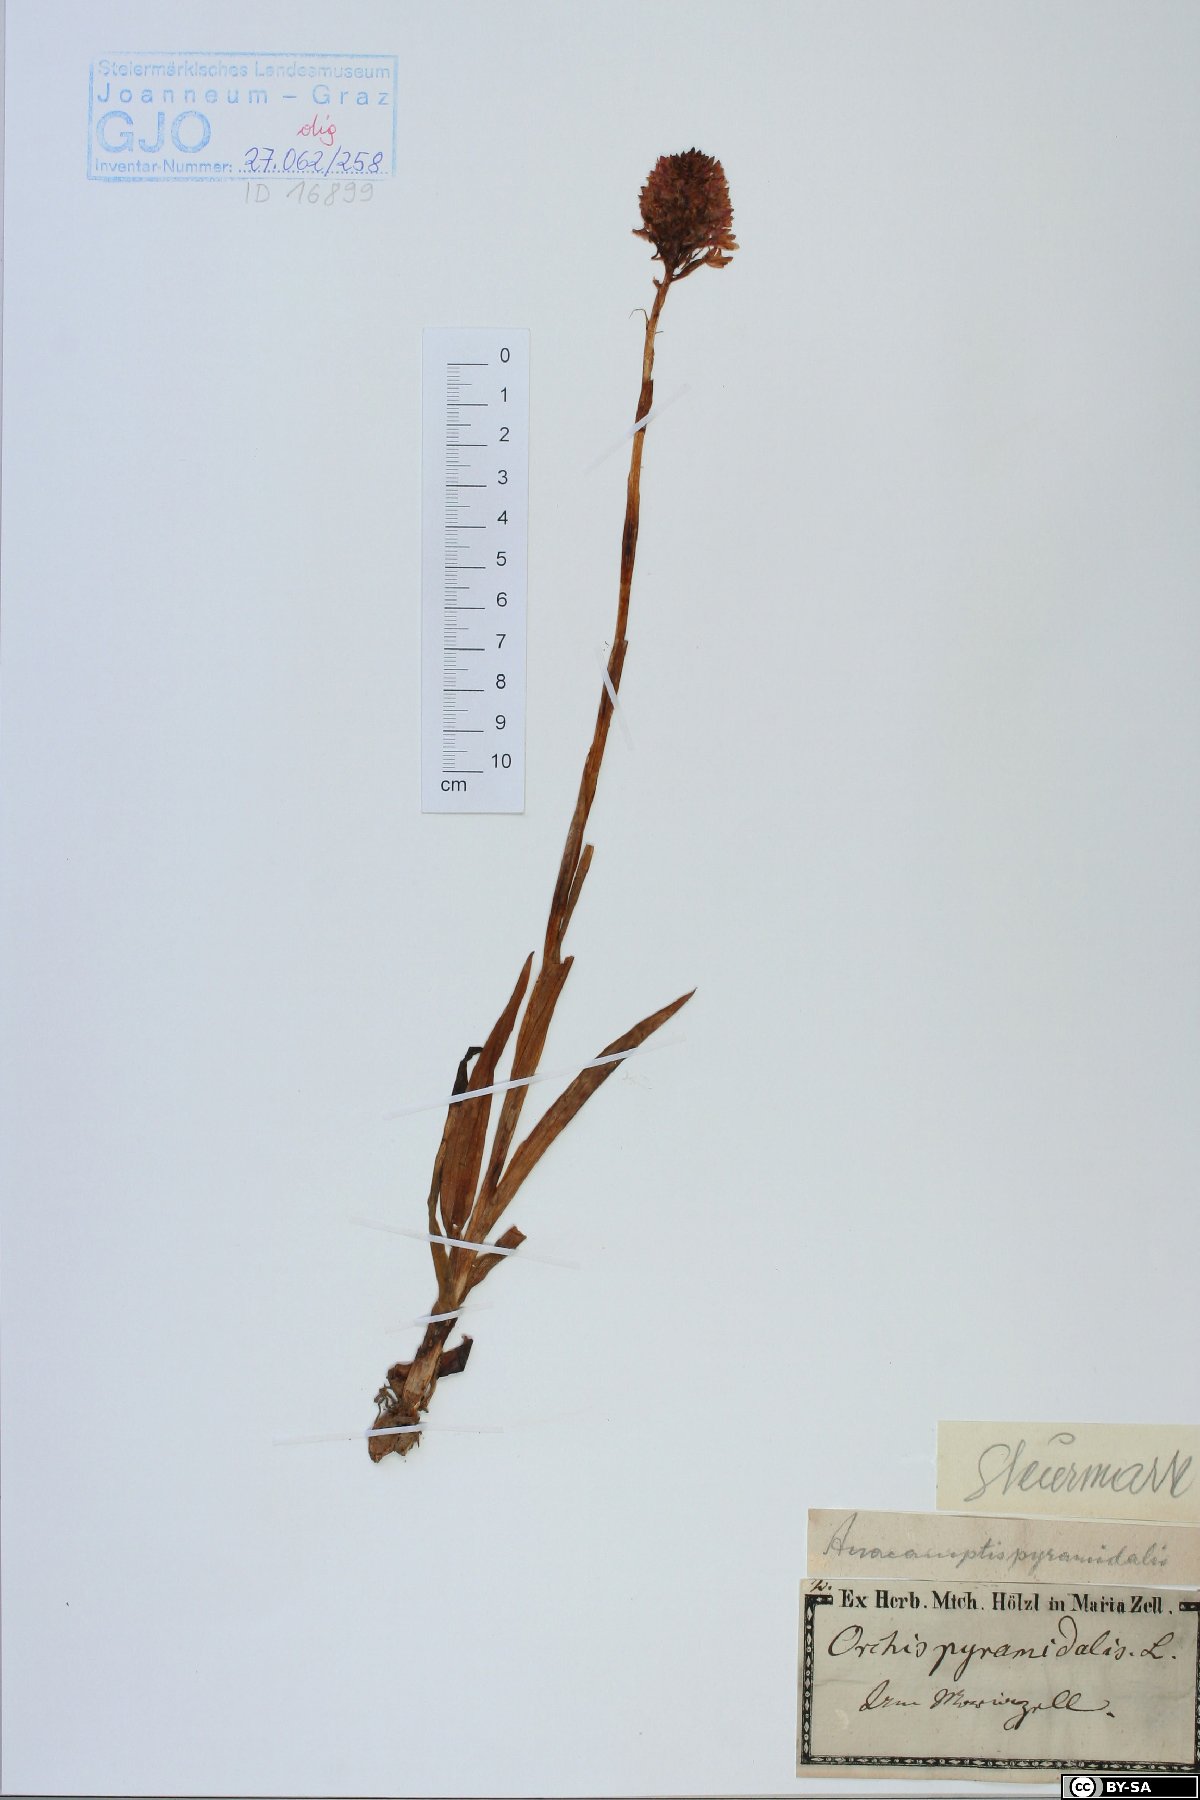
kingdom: Plantae
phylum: Tracheophyta
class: Liliopsida
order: Asparagales
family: Orchidaceae
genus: Anacamptis
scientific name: Anacamptis pyramidalis
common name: Pyramidal orchid
